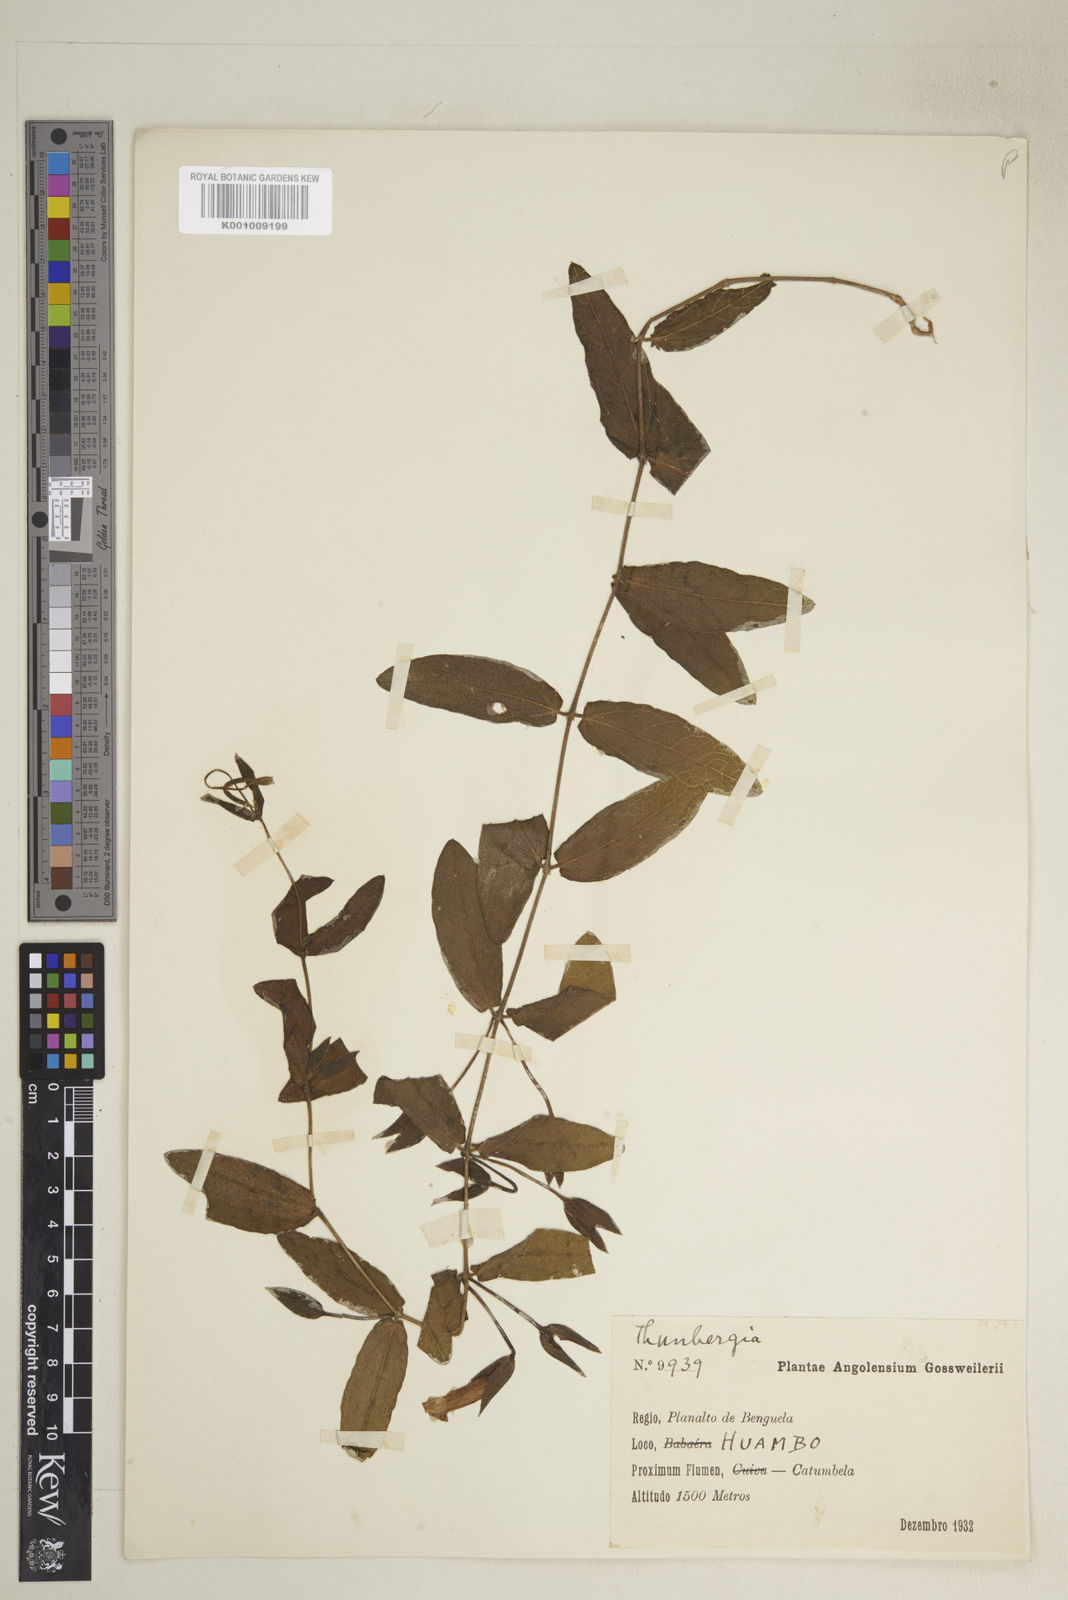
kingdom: Plantae
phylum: Tracheophyta
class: Magnoliopsida
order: Lamiales
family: Acanthaceae
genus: Thunbergia
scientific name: Thunbergia huillensis
